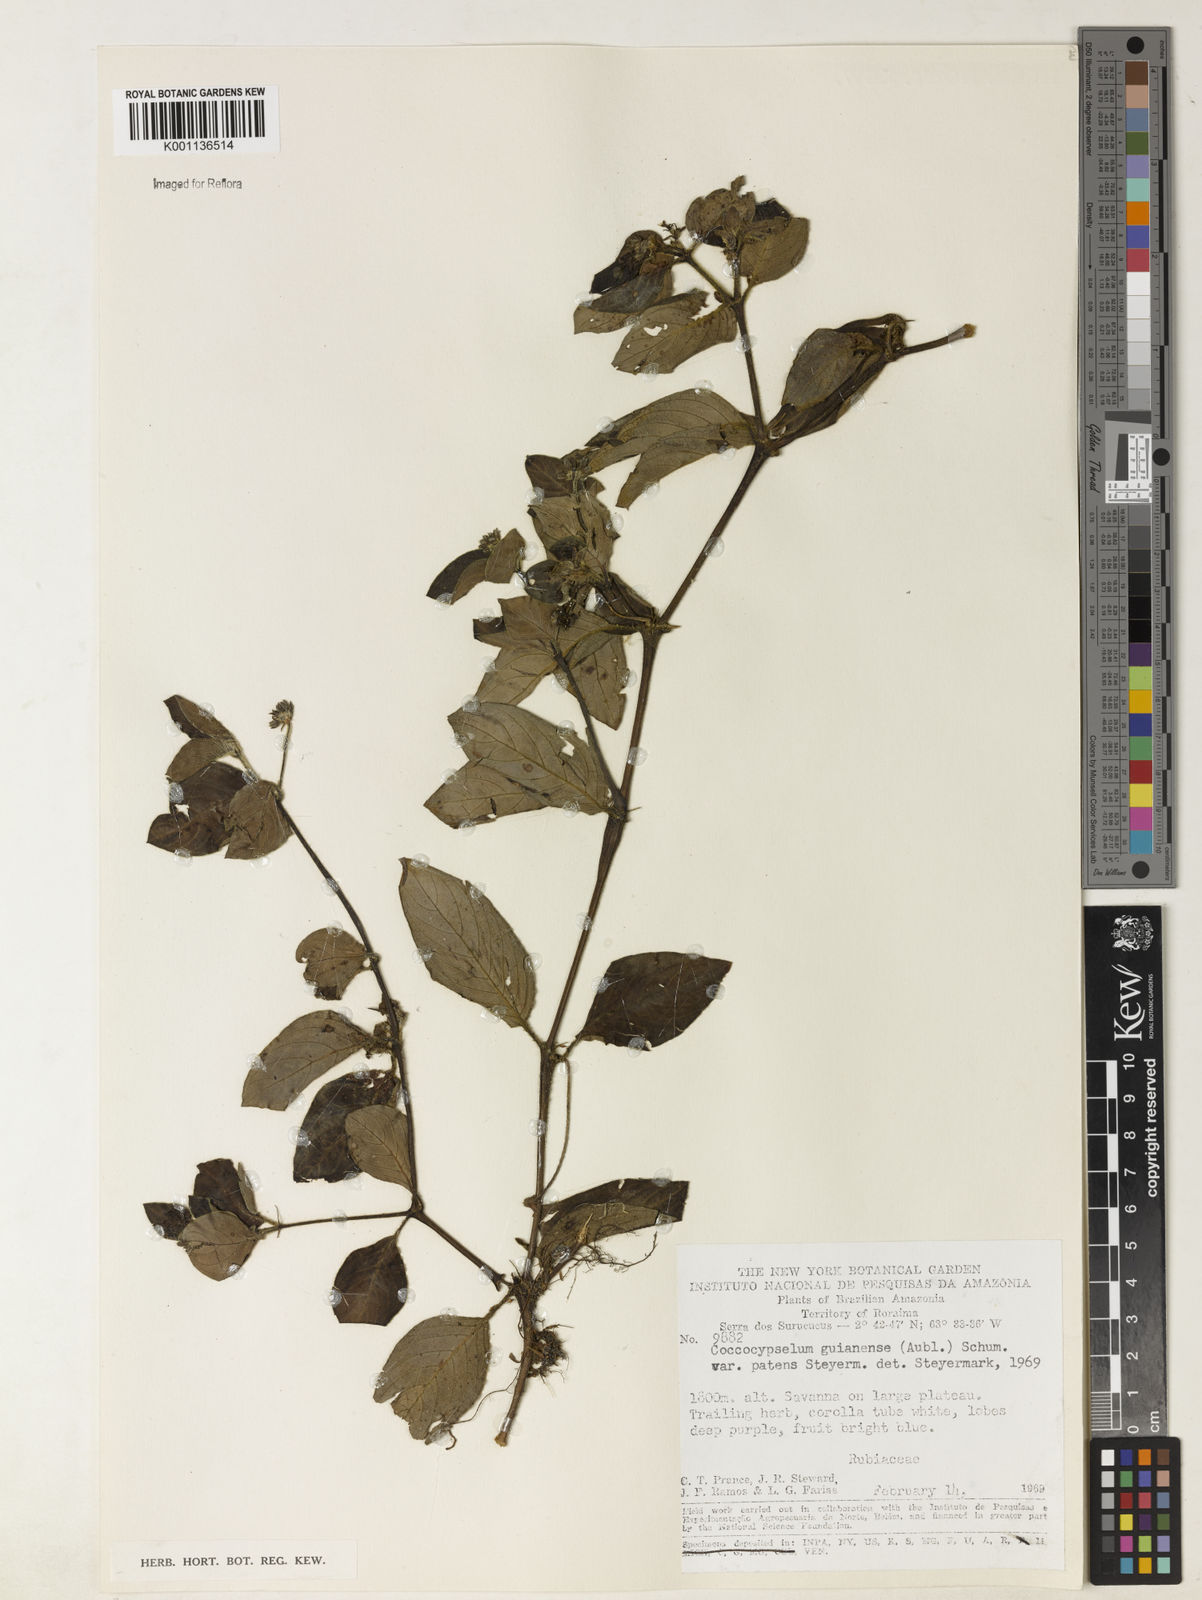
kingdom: Plantae
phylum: Tracheophyta
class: Magnoliopsida
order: Gentianales
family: Rubiaceae
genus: Coccocypselum
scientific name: Coccocypselum guianense
